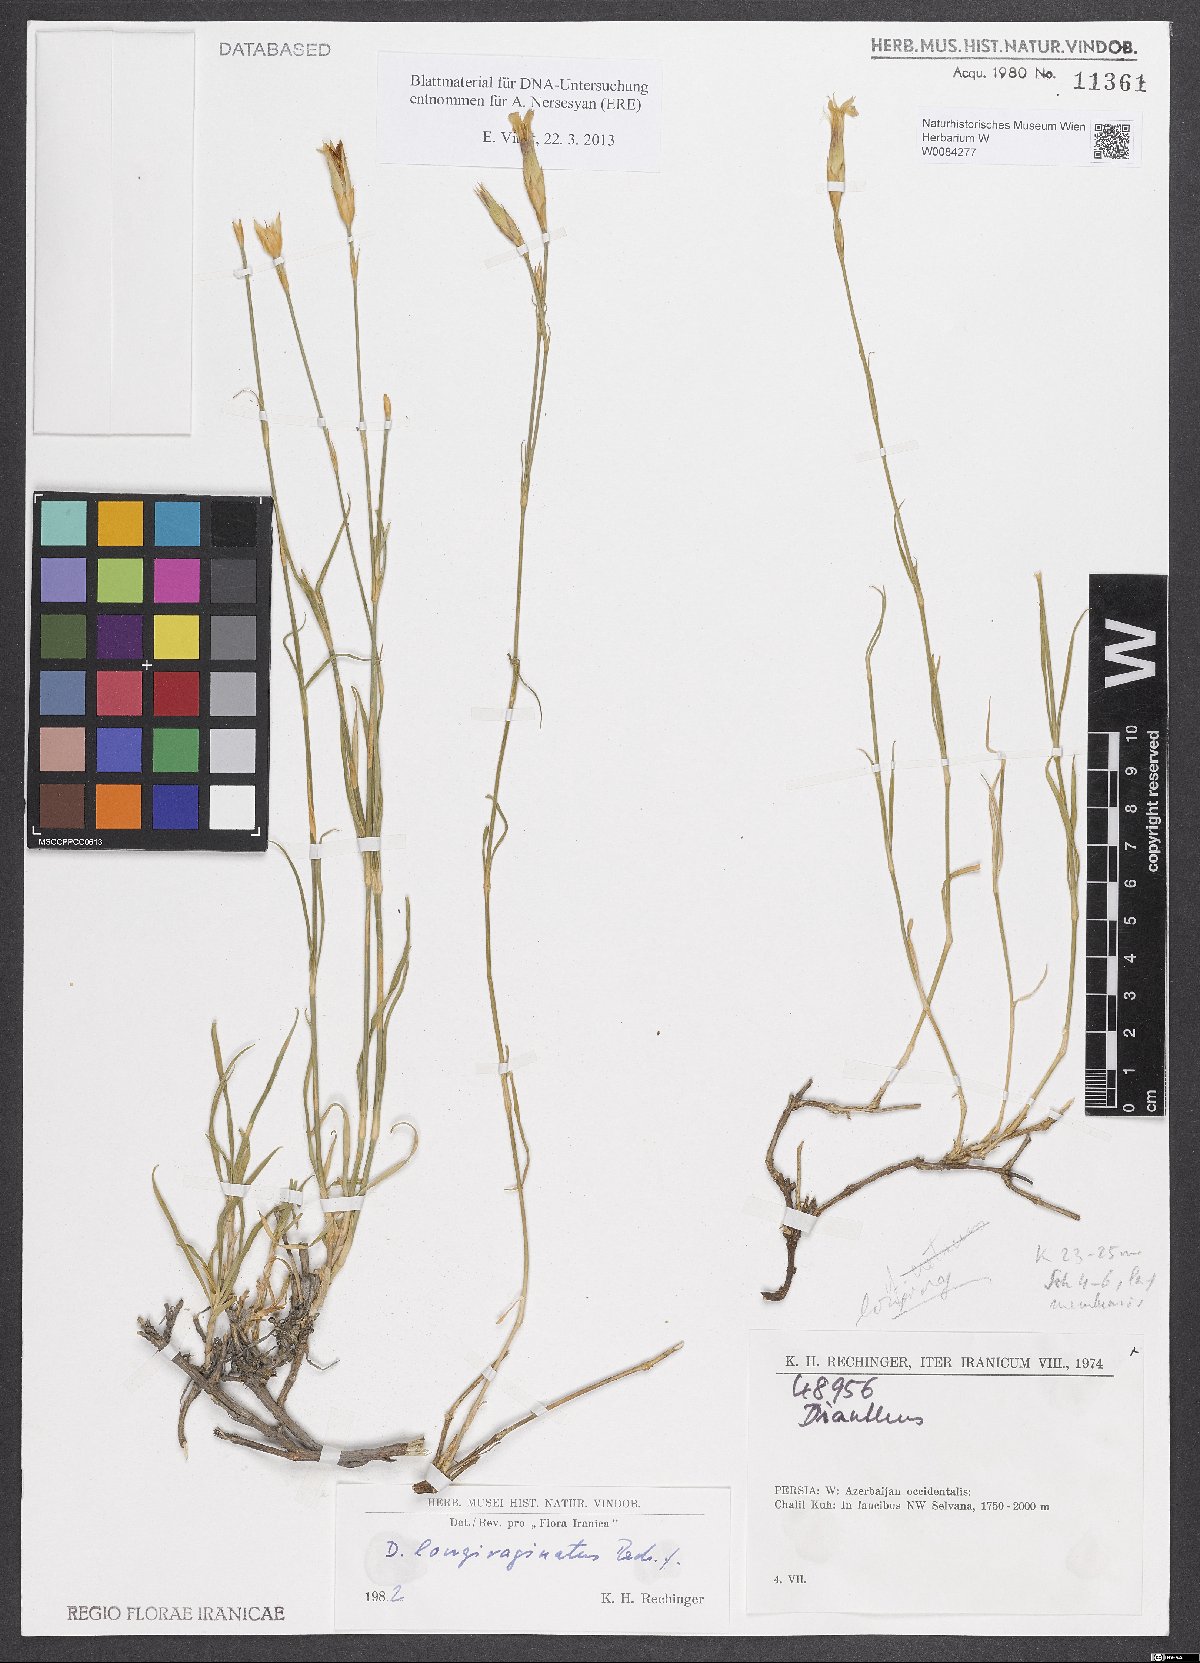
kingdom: Plantae
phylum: Tracheophyta
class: Magnoliopsida
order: Caryophyllales
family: Caryophyllaceae
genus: Dianthus
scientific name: Dianthus longivaginatus
